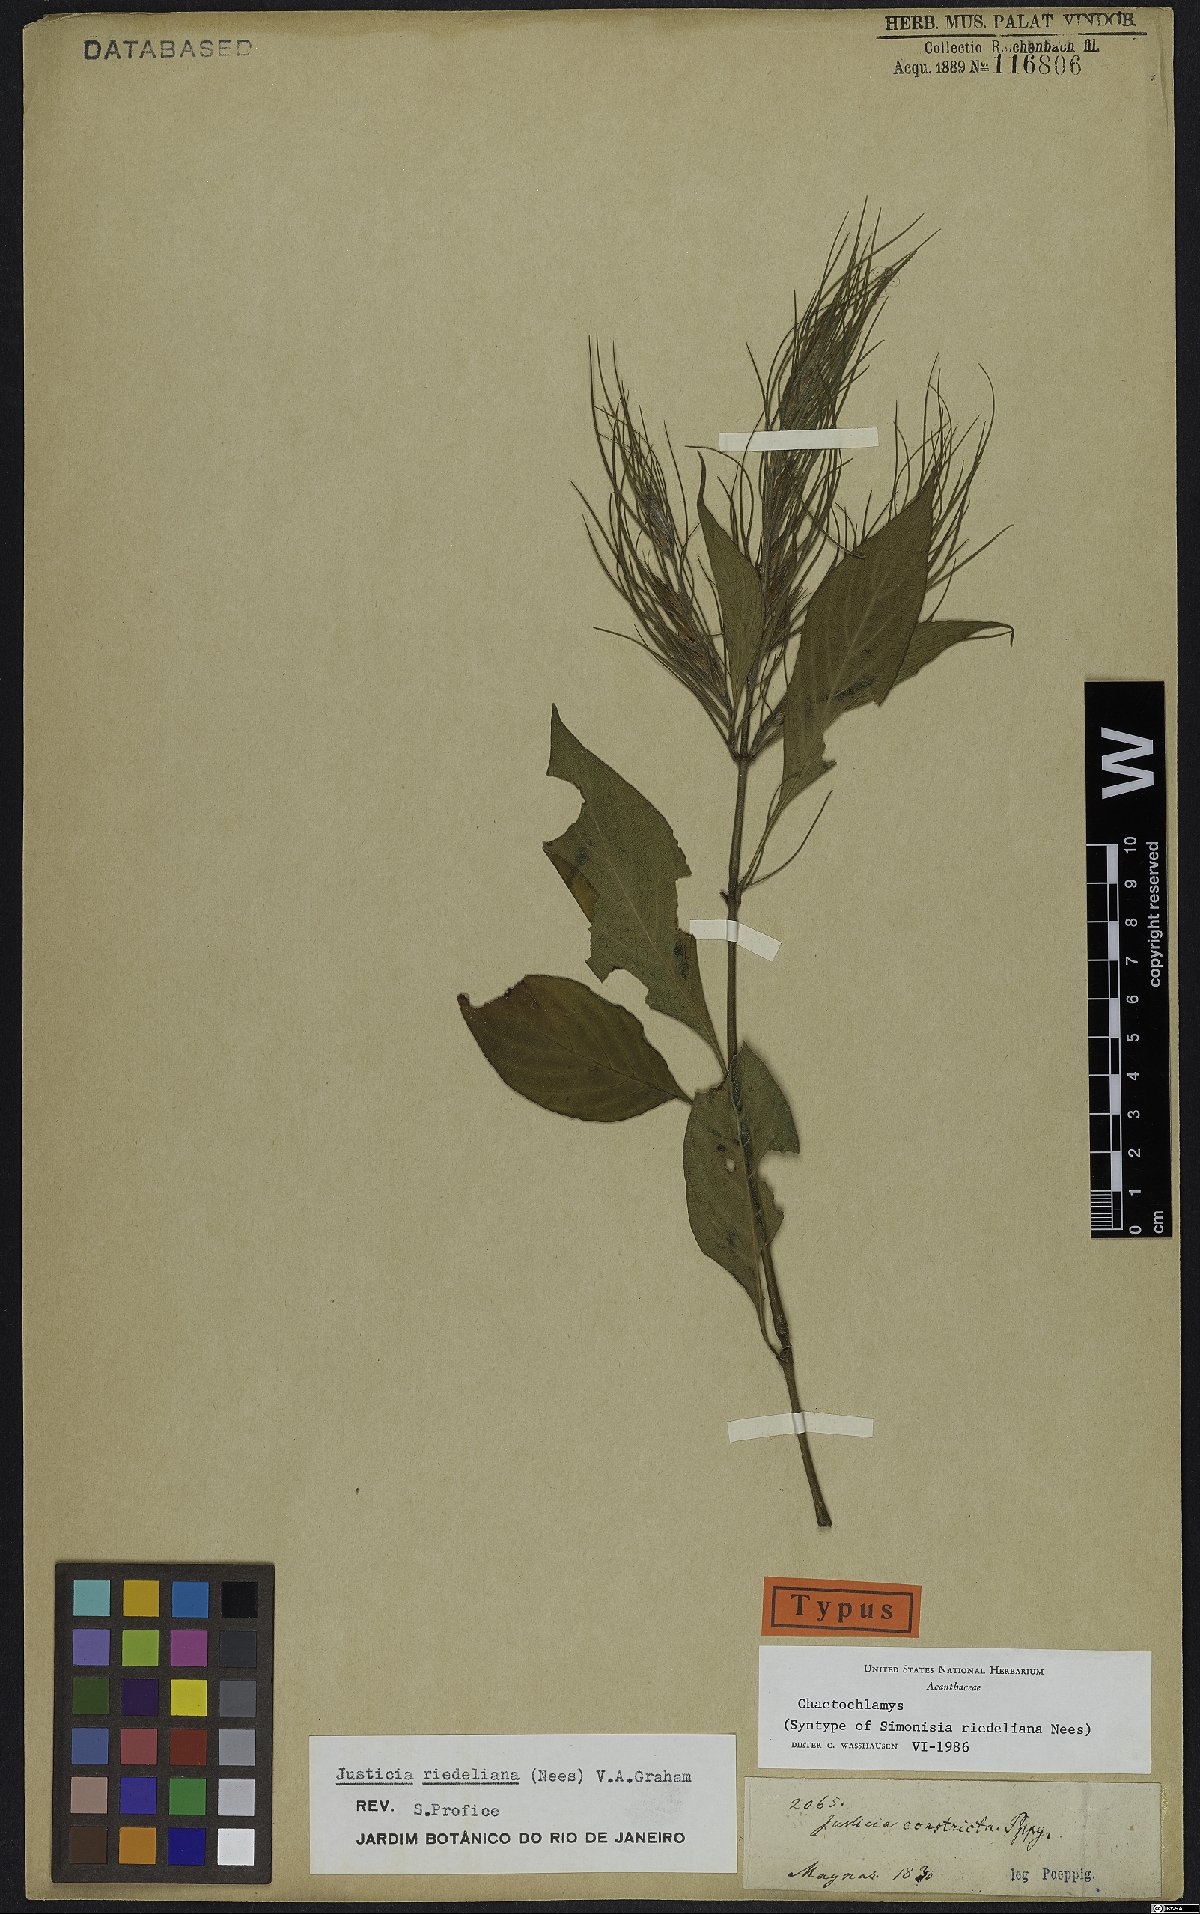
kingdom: Plantae
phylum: Tracheophyta
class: Magnoliopsida
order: Lamiales
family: Acanthaceae
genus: Justicia
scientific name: Justicia riedeliana
